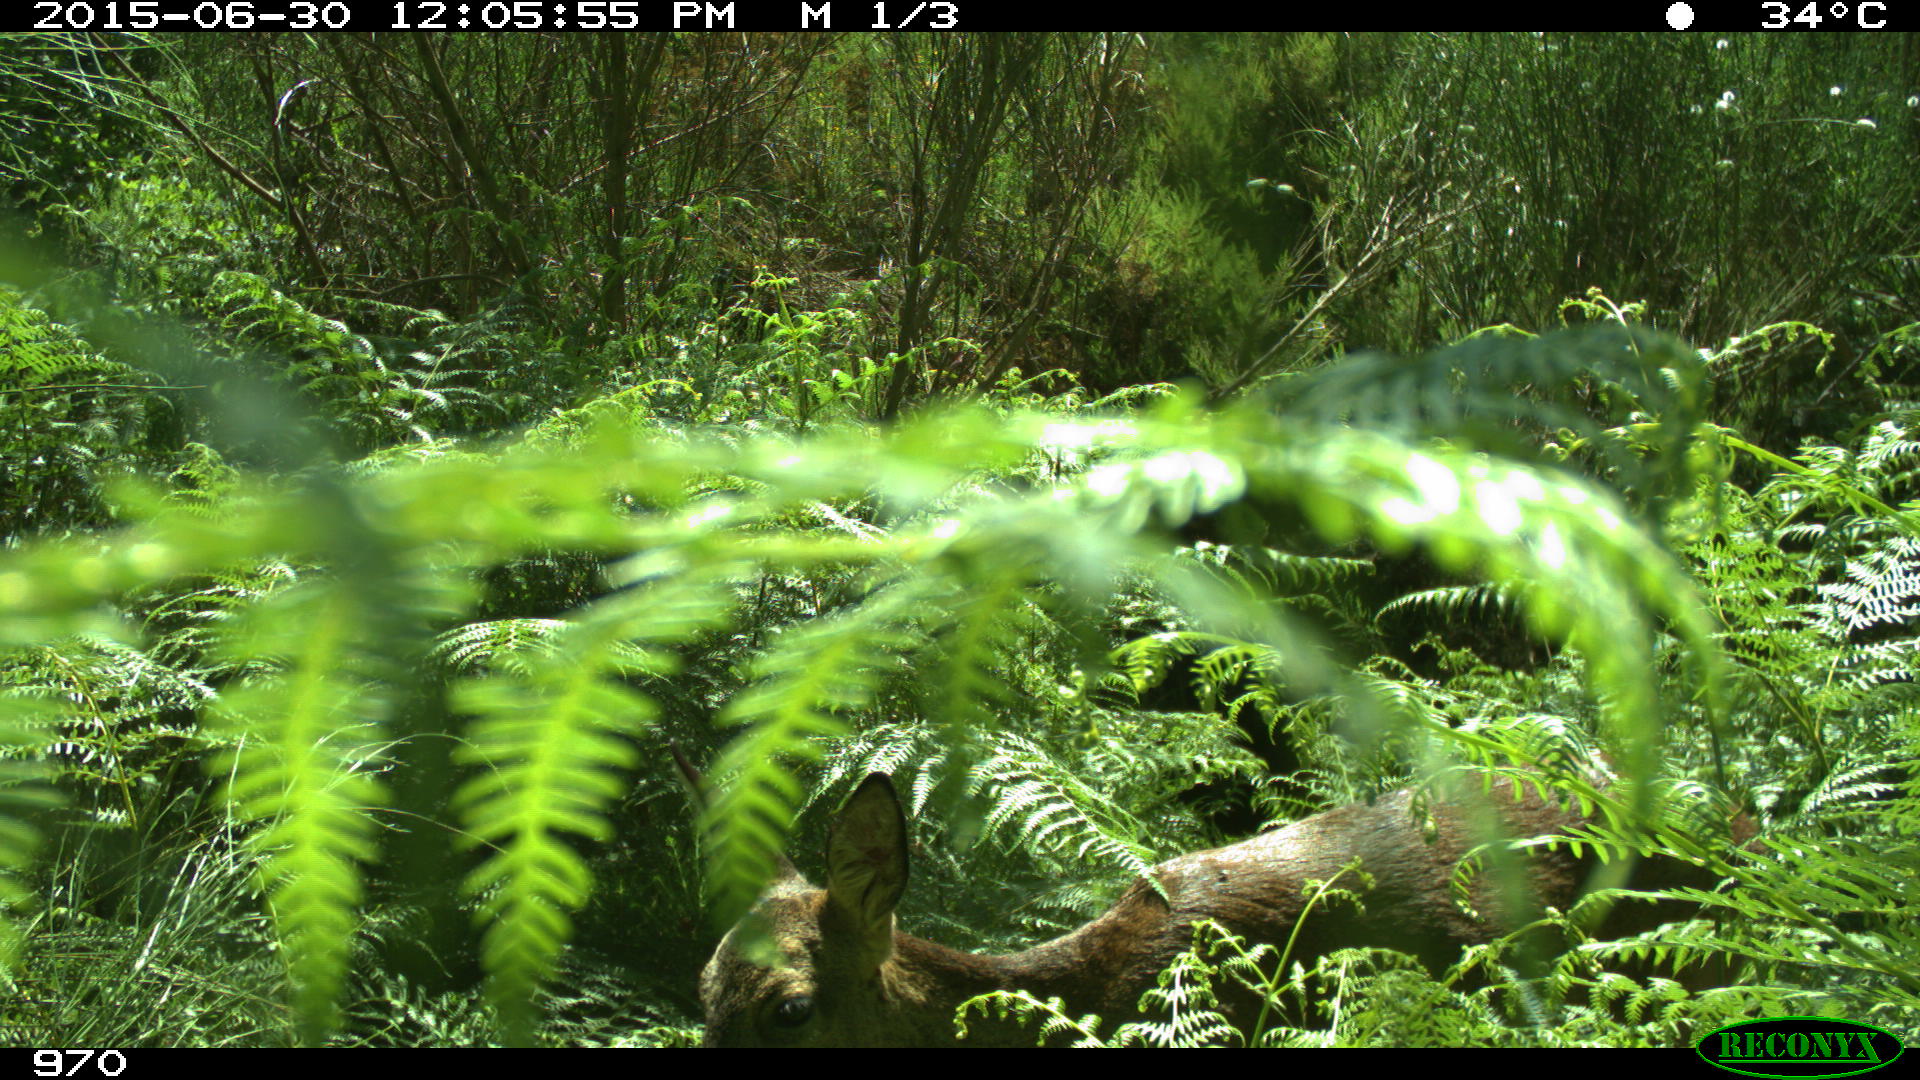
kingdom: Animalia
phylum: Chordata
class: Mammalia
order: Artiodactyla
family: Cervidae
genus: Capreolus
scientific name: Capreolus capreolus
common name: Western roe deer
